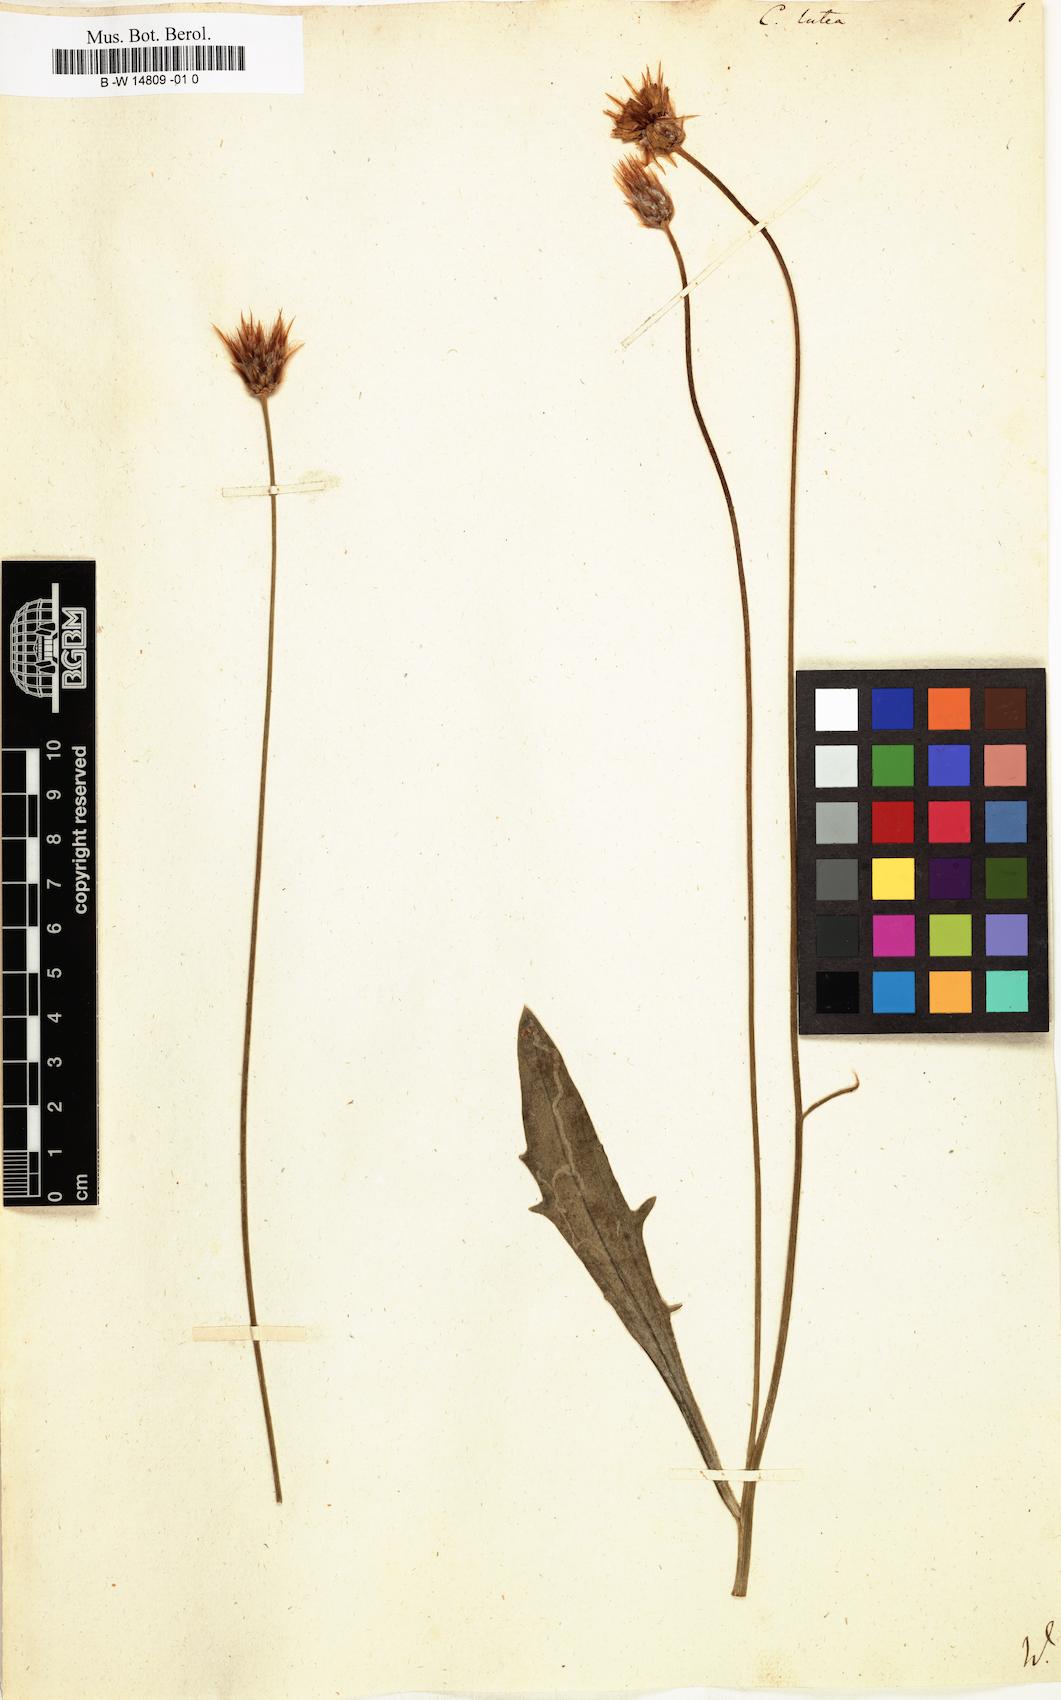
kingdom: Plantae
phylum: Tracheophyta
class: Magnoliopsida
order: Asterales
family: Asteraceae
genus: Catananche
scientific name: Catananche lutea
